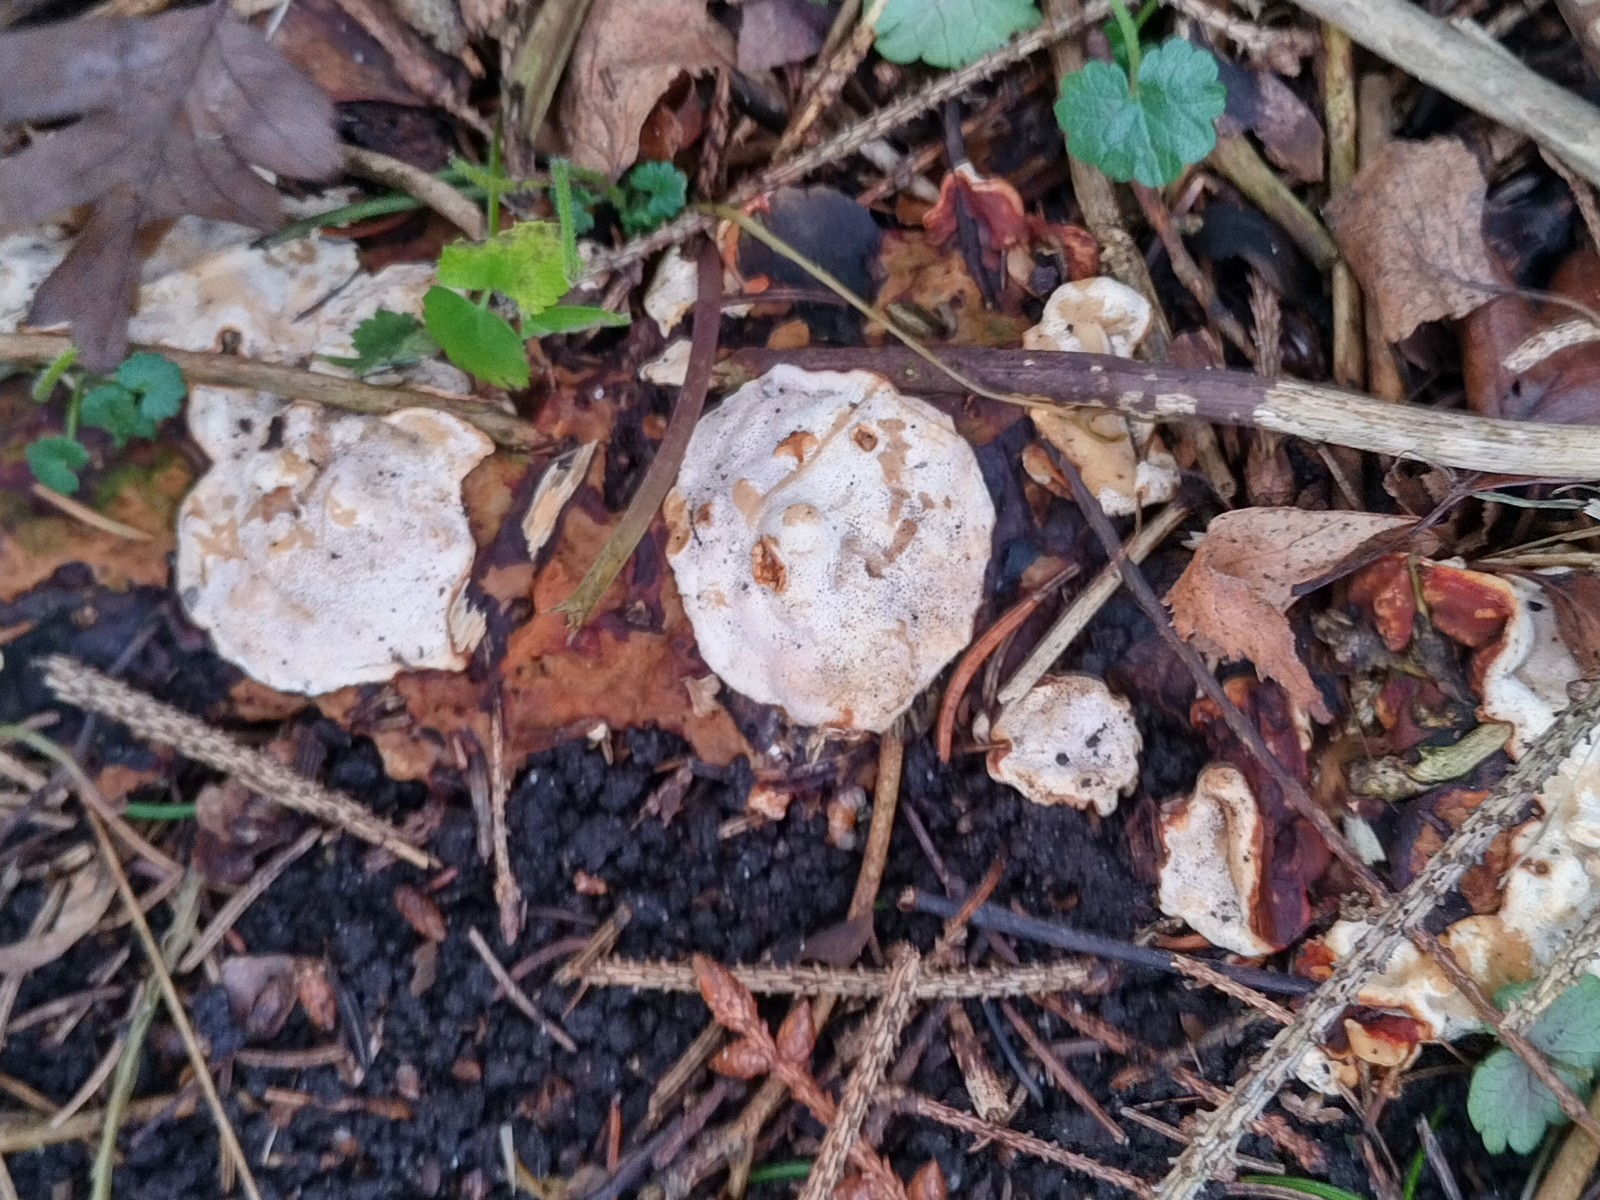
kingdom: Fungi
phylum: Basidiomycota
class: Agaricomycetes
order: Russulales
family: Bondarzewiaceae
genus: Heterobasidion
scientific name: Heterobasidion annosum
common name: almindelig rodfordærver
